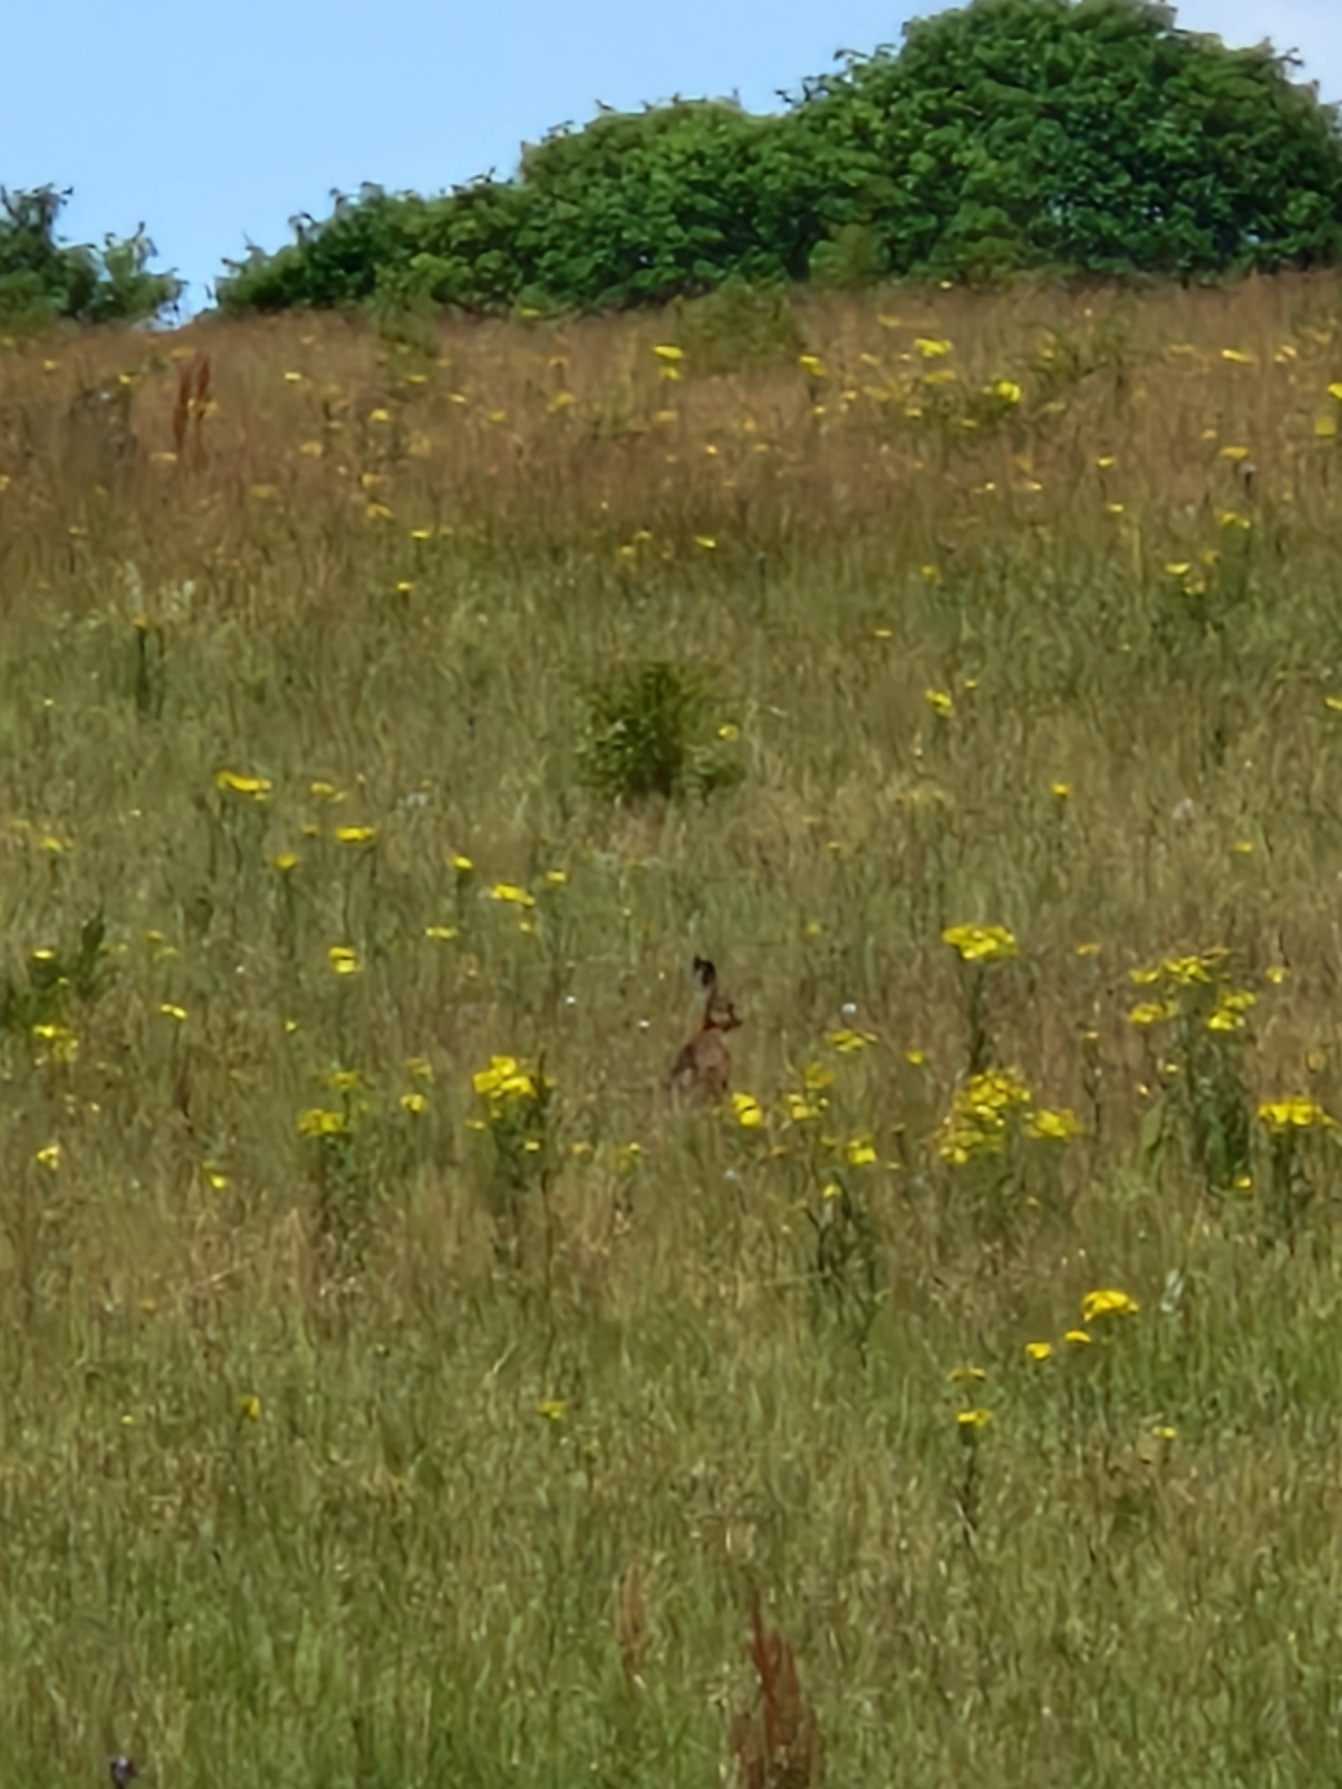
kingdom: Animalia
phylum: Chordata
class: Mammalia
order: Lagomorpha
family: Leporidae
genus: Lepus
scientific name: Lepus europaeus
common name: Hare
